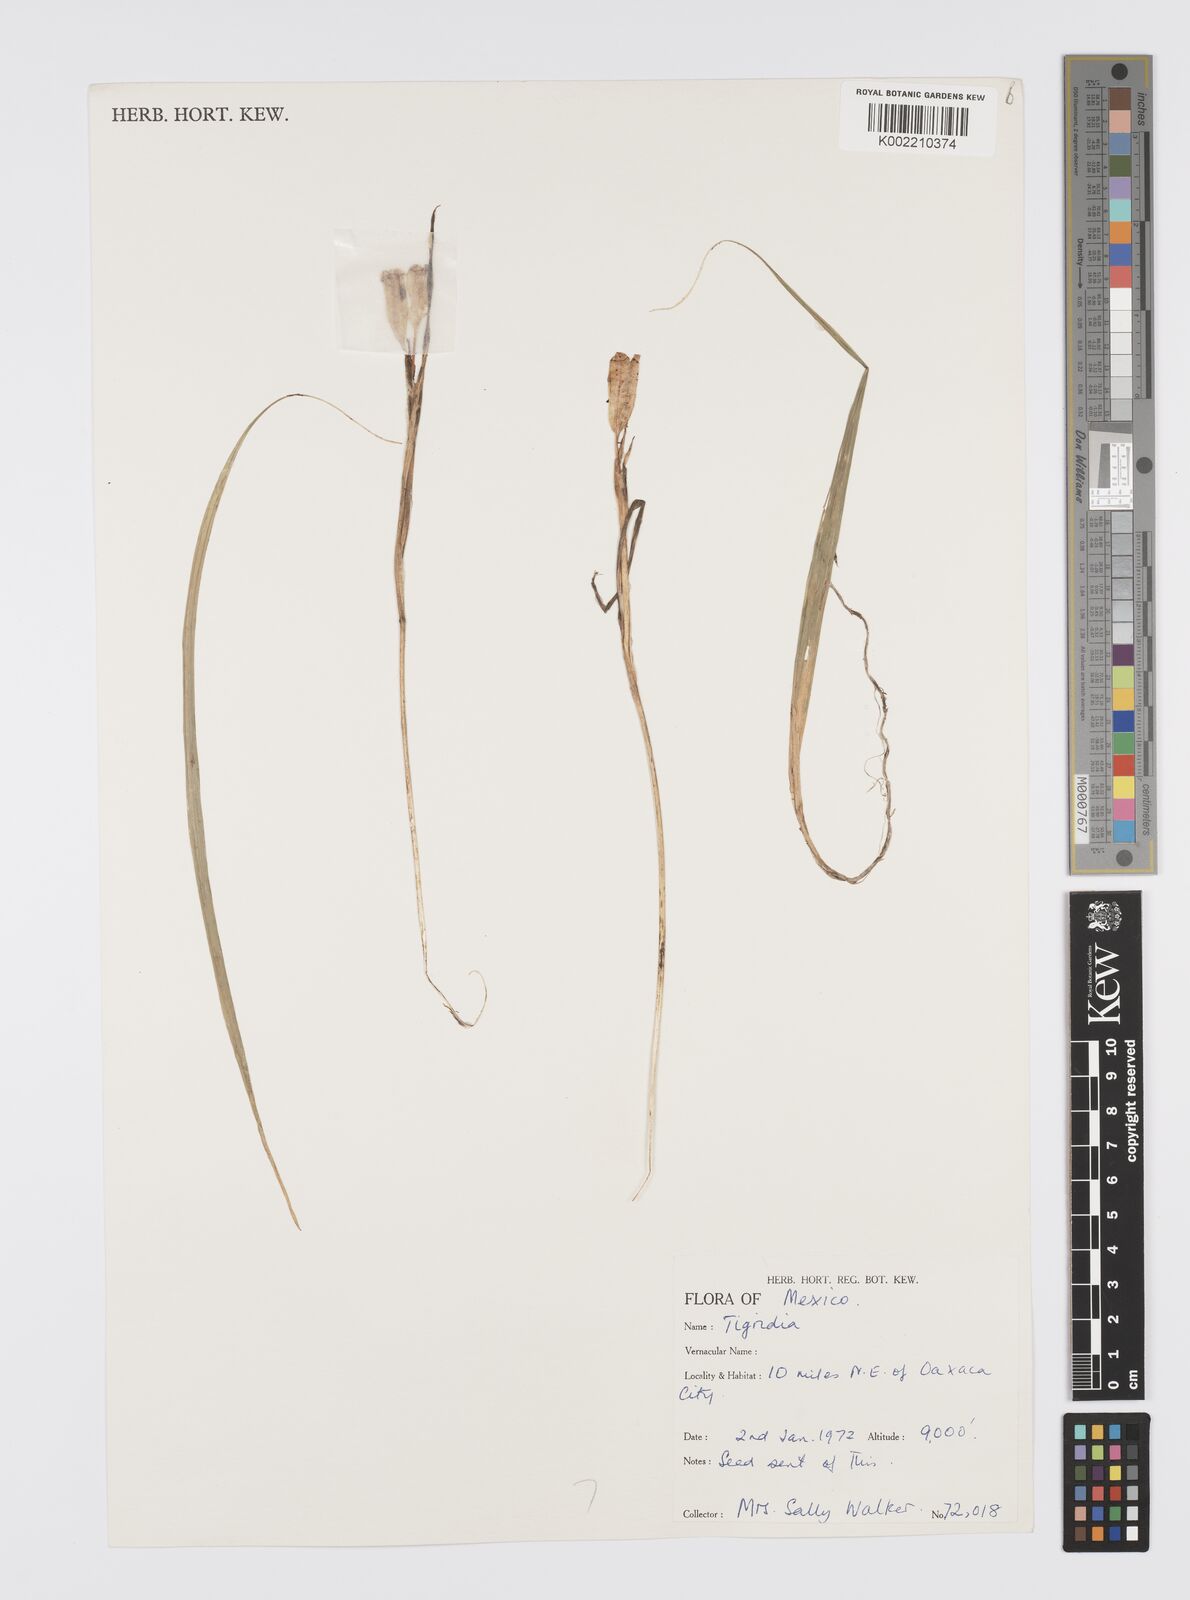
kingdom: Plantae
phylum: Tracheophyta
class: Liliopsida
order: Asparagales
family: Iridaceae
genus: Tigridia
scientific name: Tigridia
